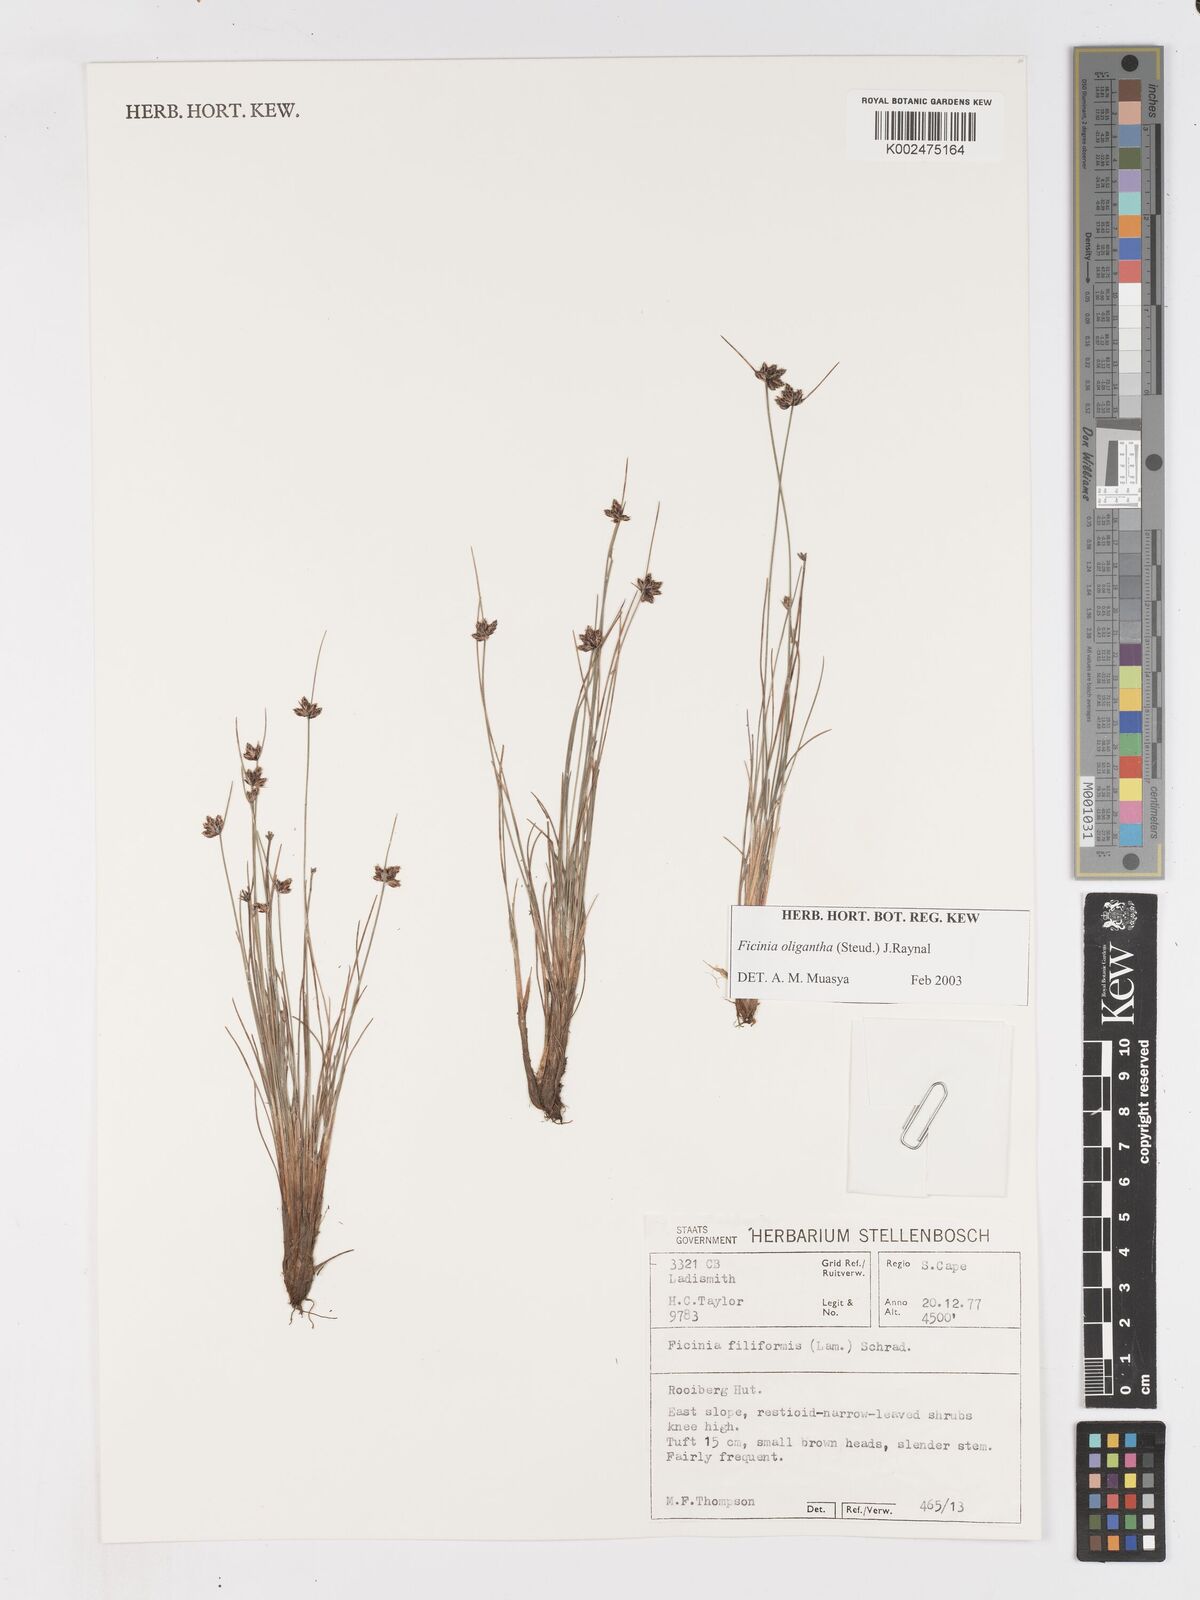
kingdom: Plantae
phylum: Tracheophyta
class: Liliopsida
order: Poales
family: Cyperaceae
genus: Ficinia
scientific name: Ficinia stolonifera
